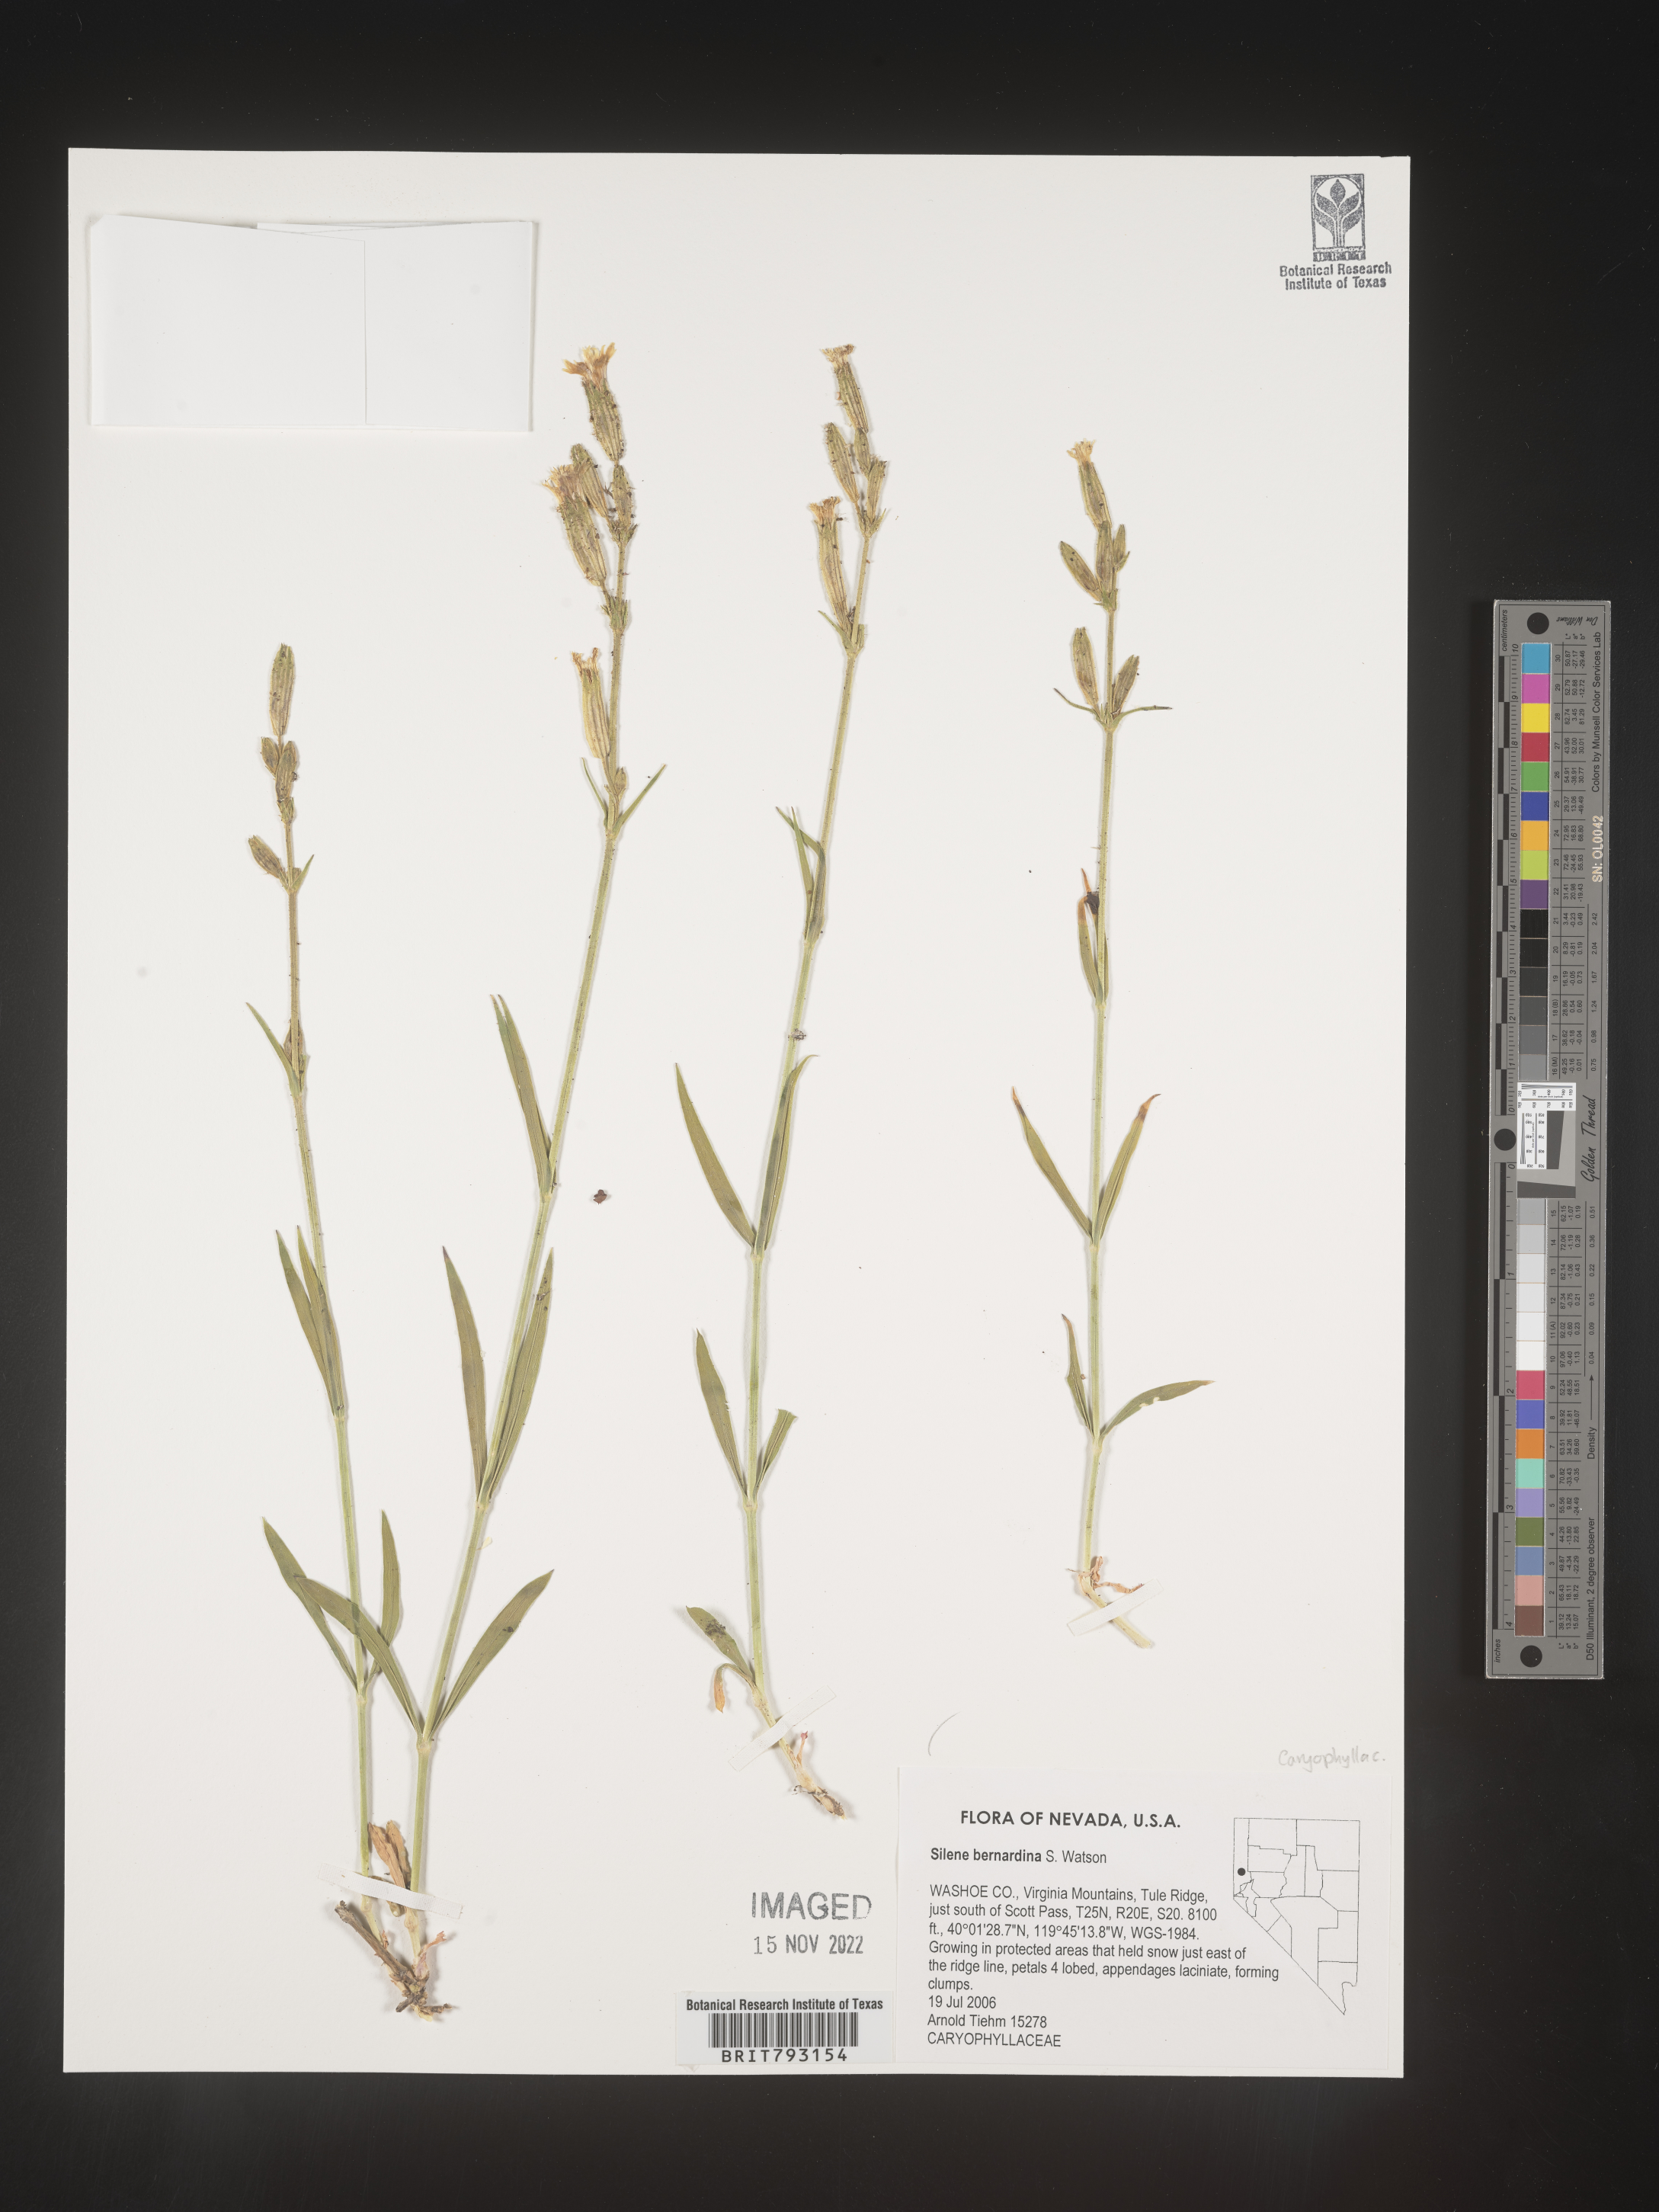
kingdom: Plantae
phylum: Tracheophyta
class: Magnoliopsida
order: Caryophyllales
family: Caryophyllaceae
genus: Silene
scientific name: Silene bernardina
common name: Palmer's catchfly
